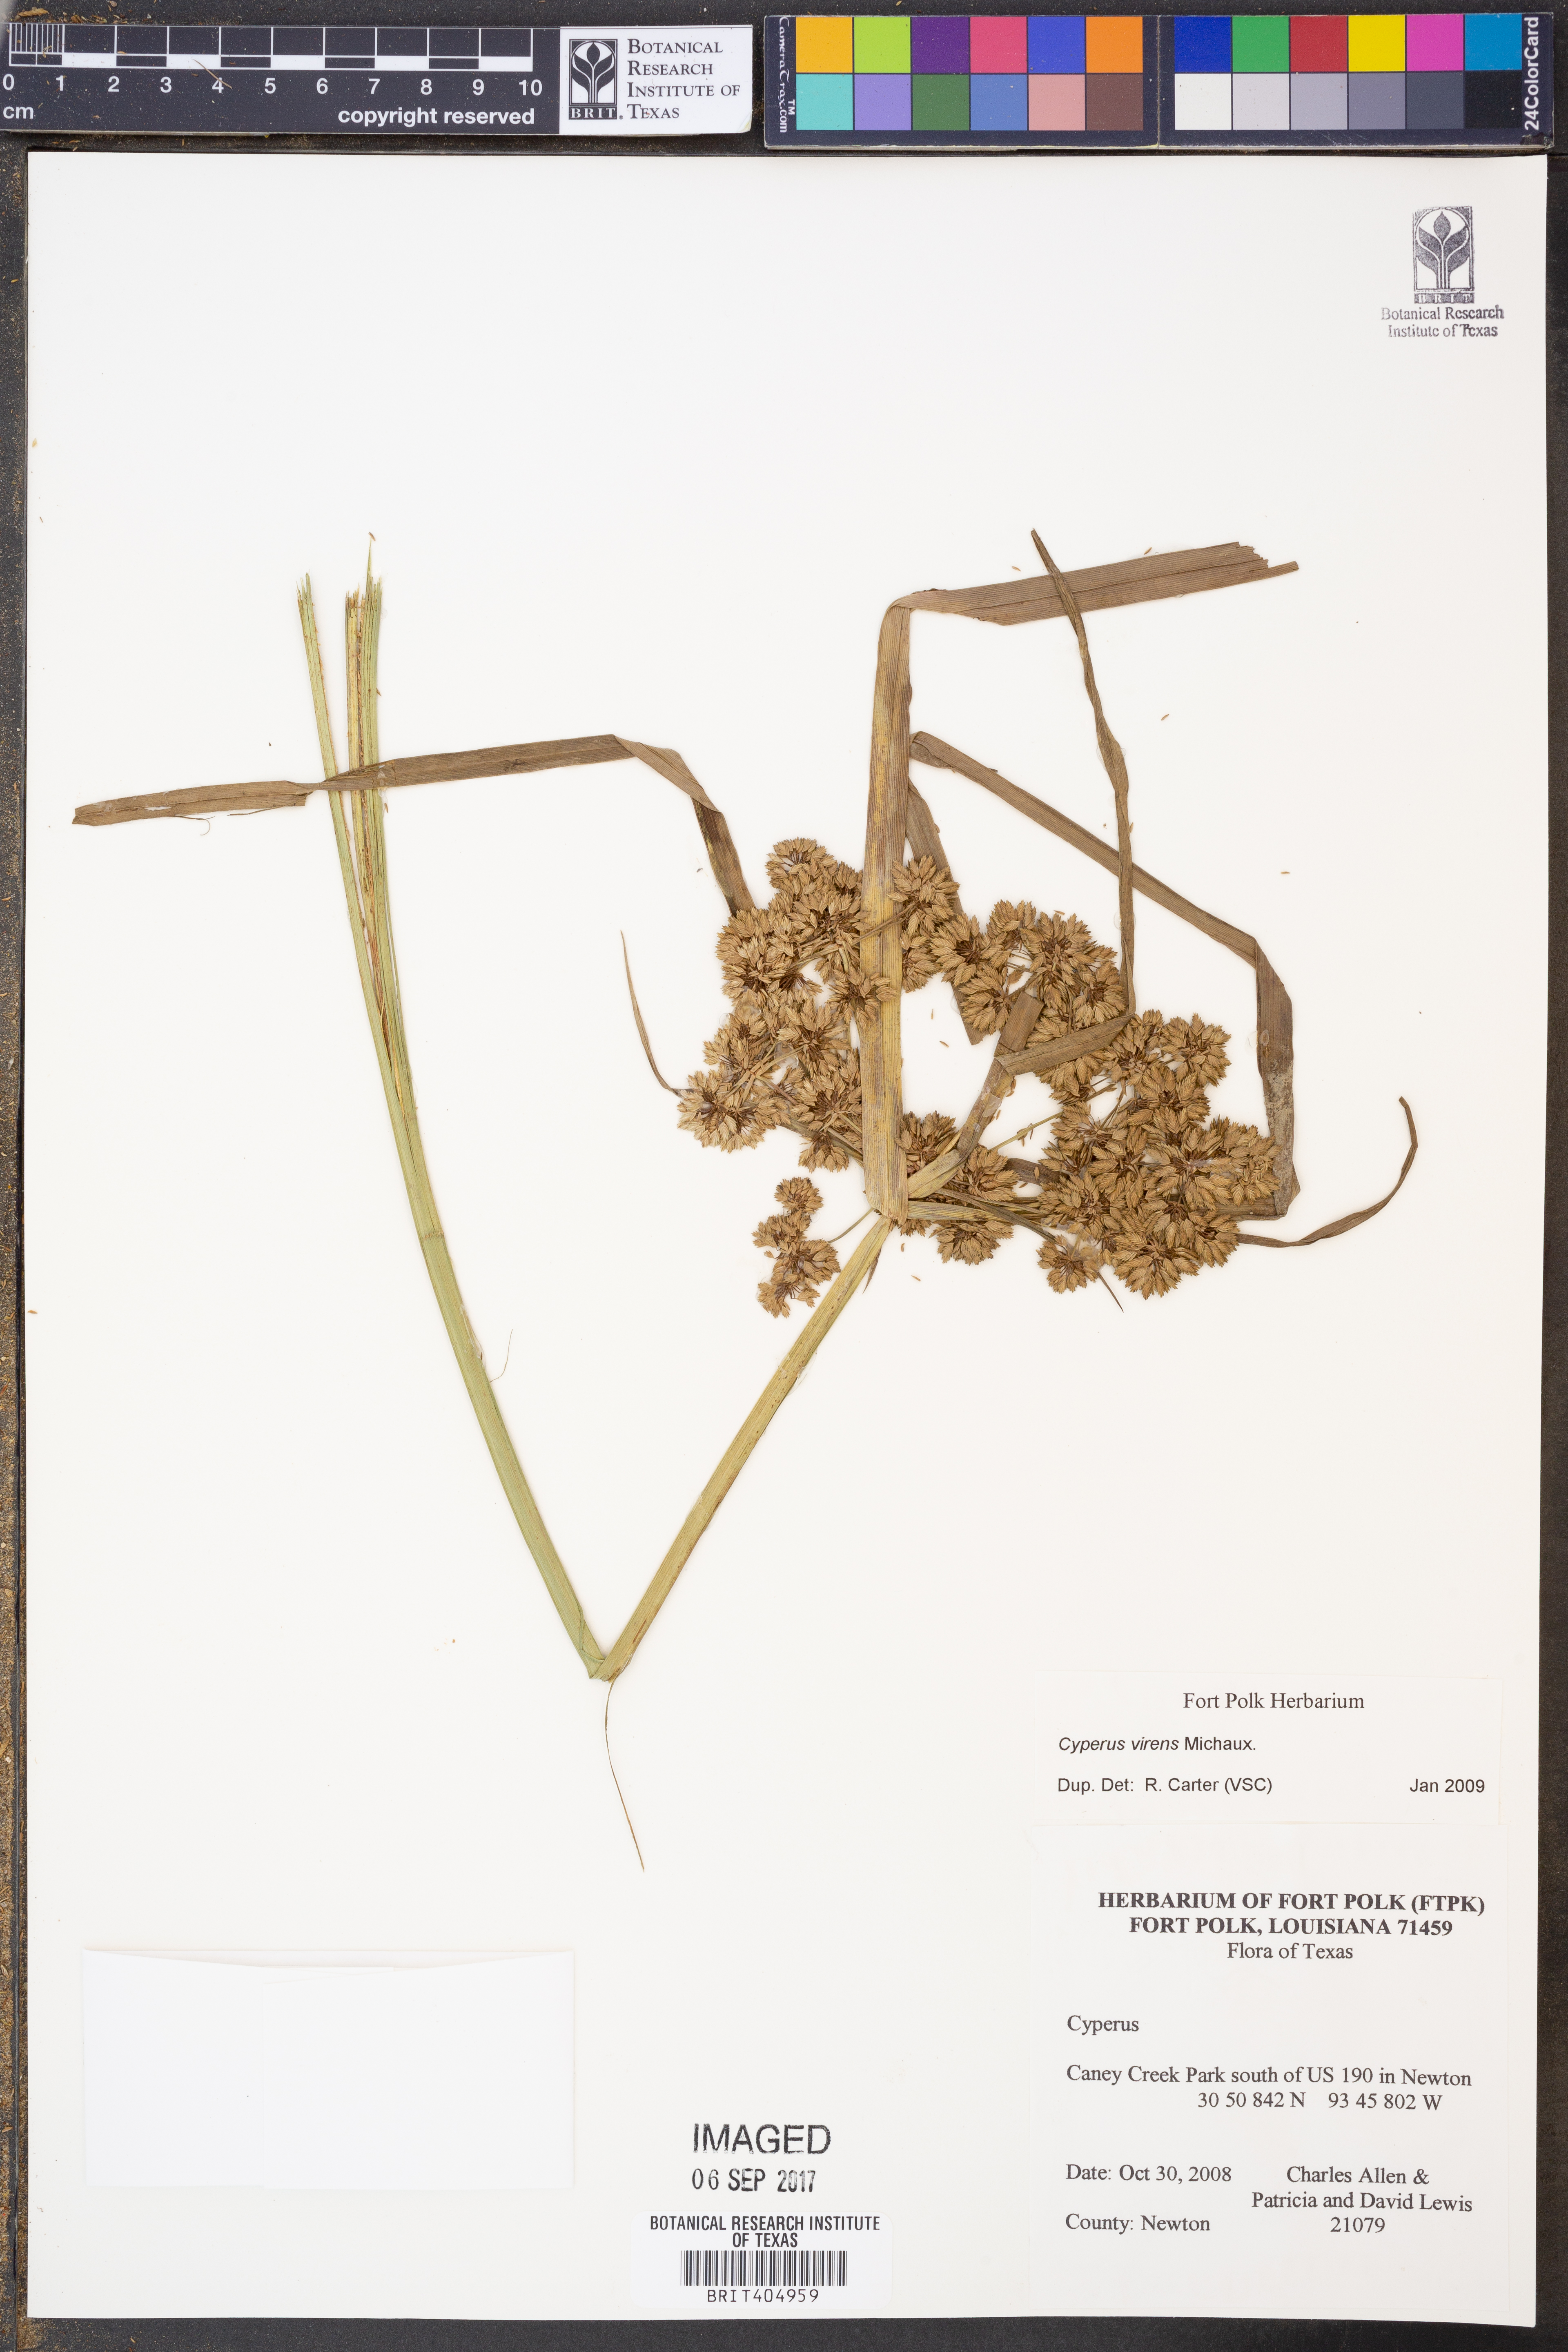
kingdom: Plantae
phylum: Tracheophyta
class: Liliopsida
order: Poales
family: Cyperaceae
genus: Cyperus
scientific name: Cyperus virens
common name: Green flatsedge
